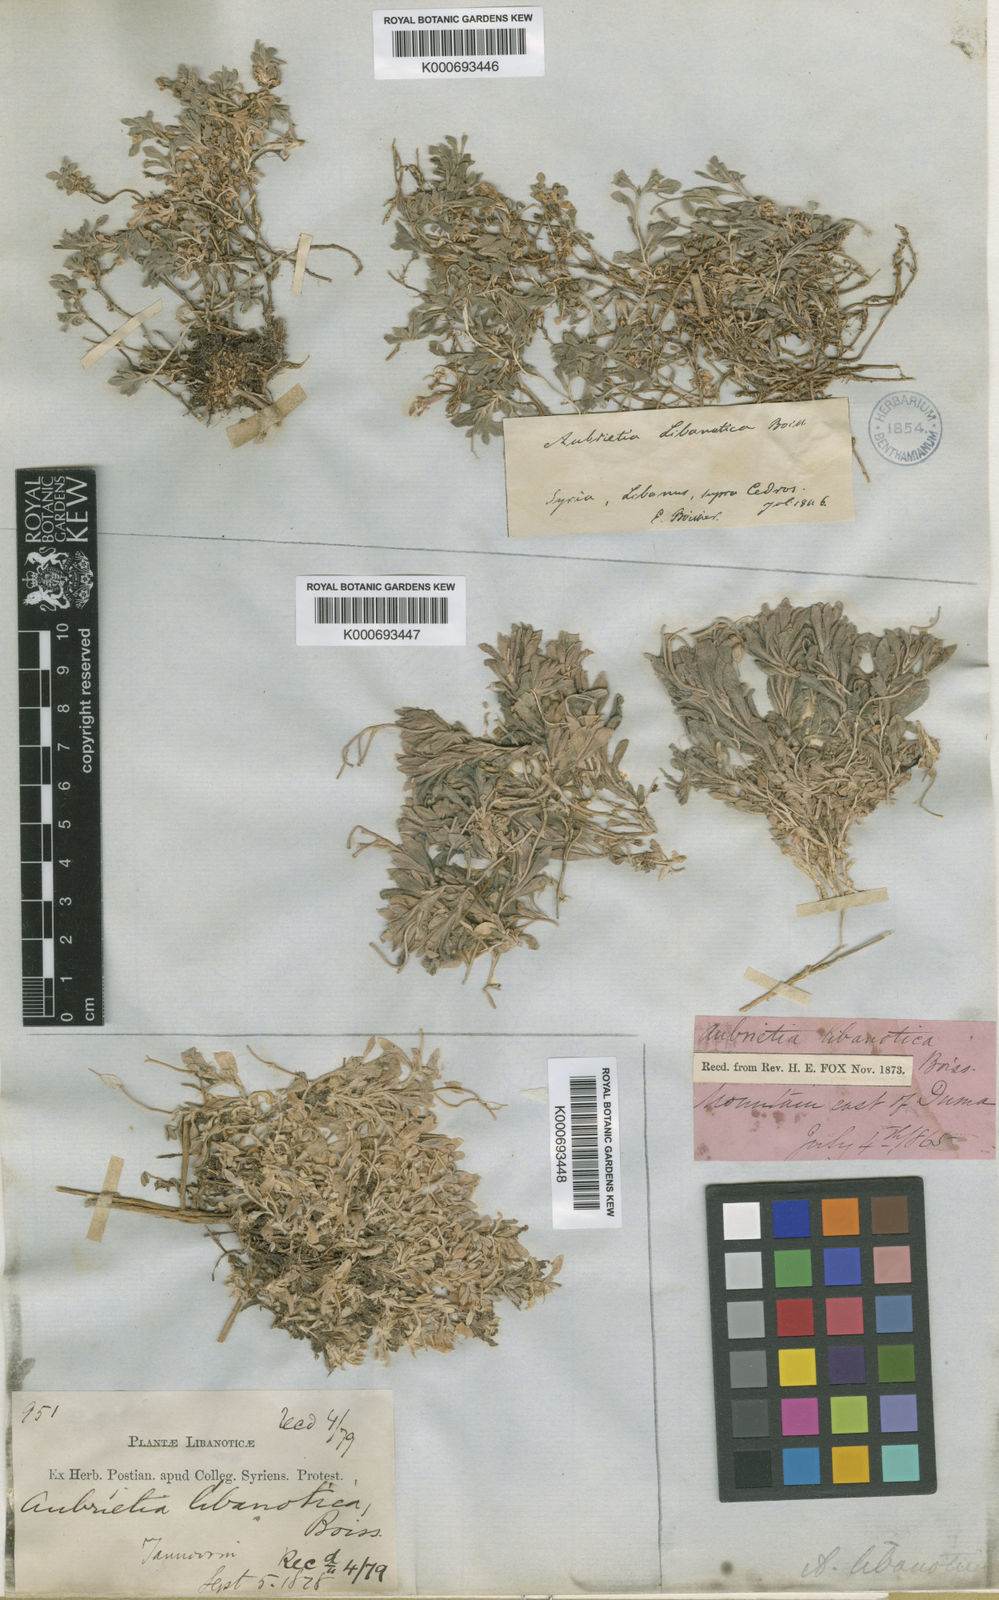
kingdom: Plantae
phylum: Tracheophyta
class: Magnoliopsida
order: Brassicales
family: Brassicaceae
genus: Aubrieta
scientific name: Aubrieta libanotica
